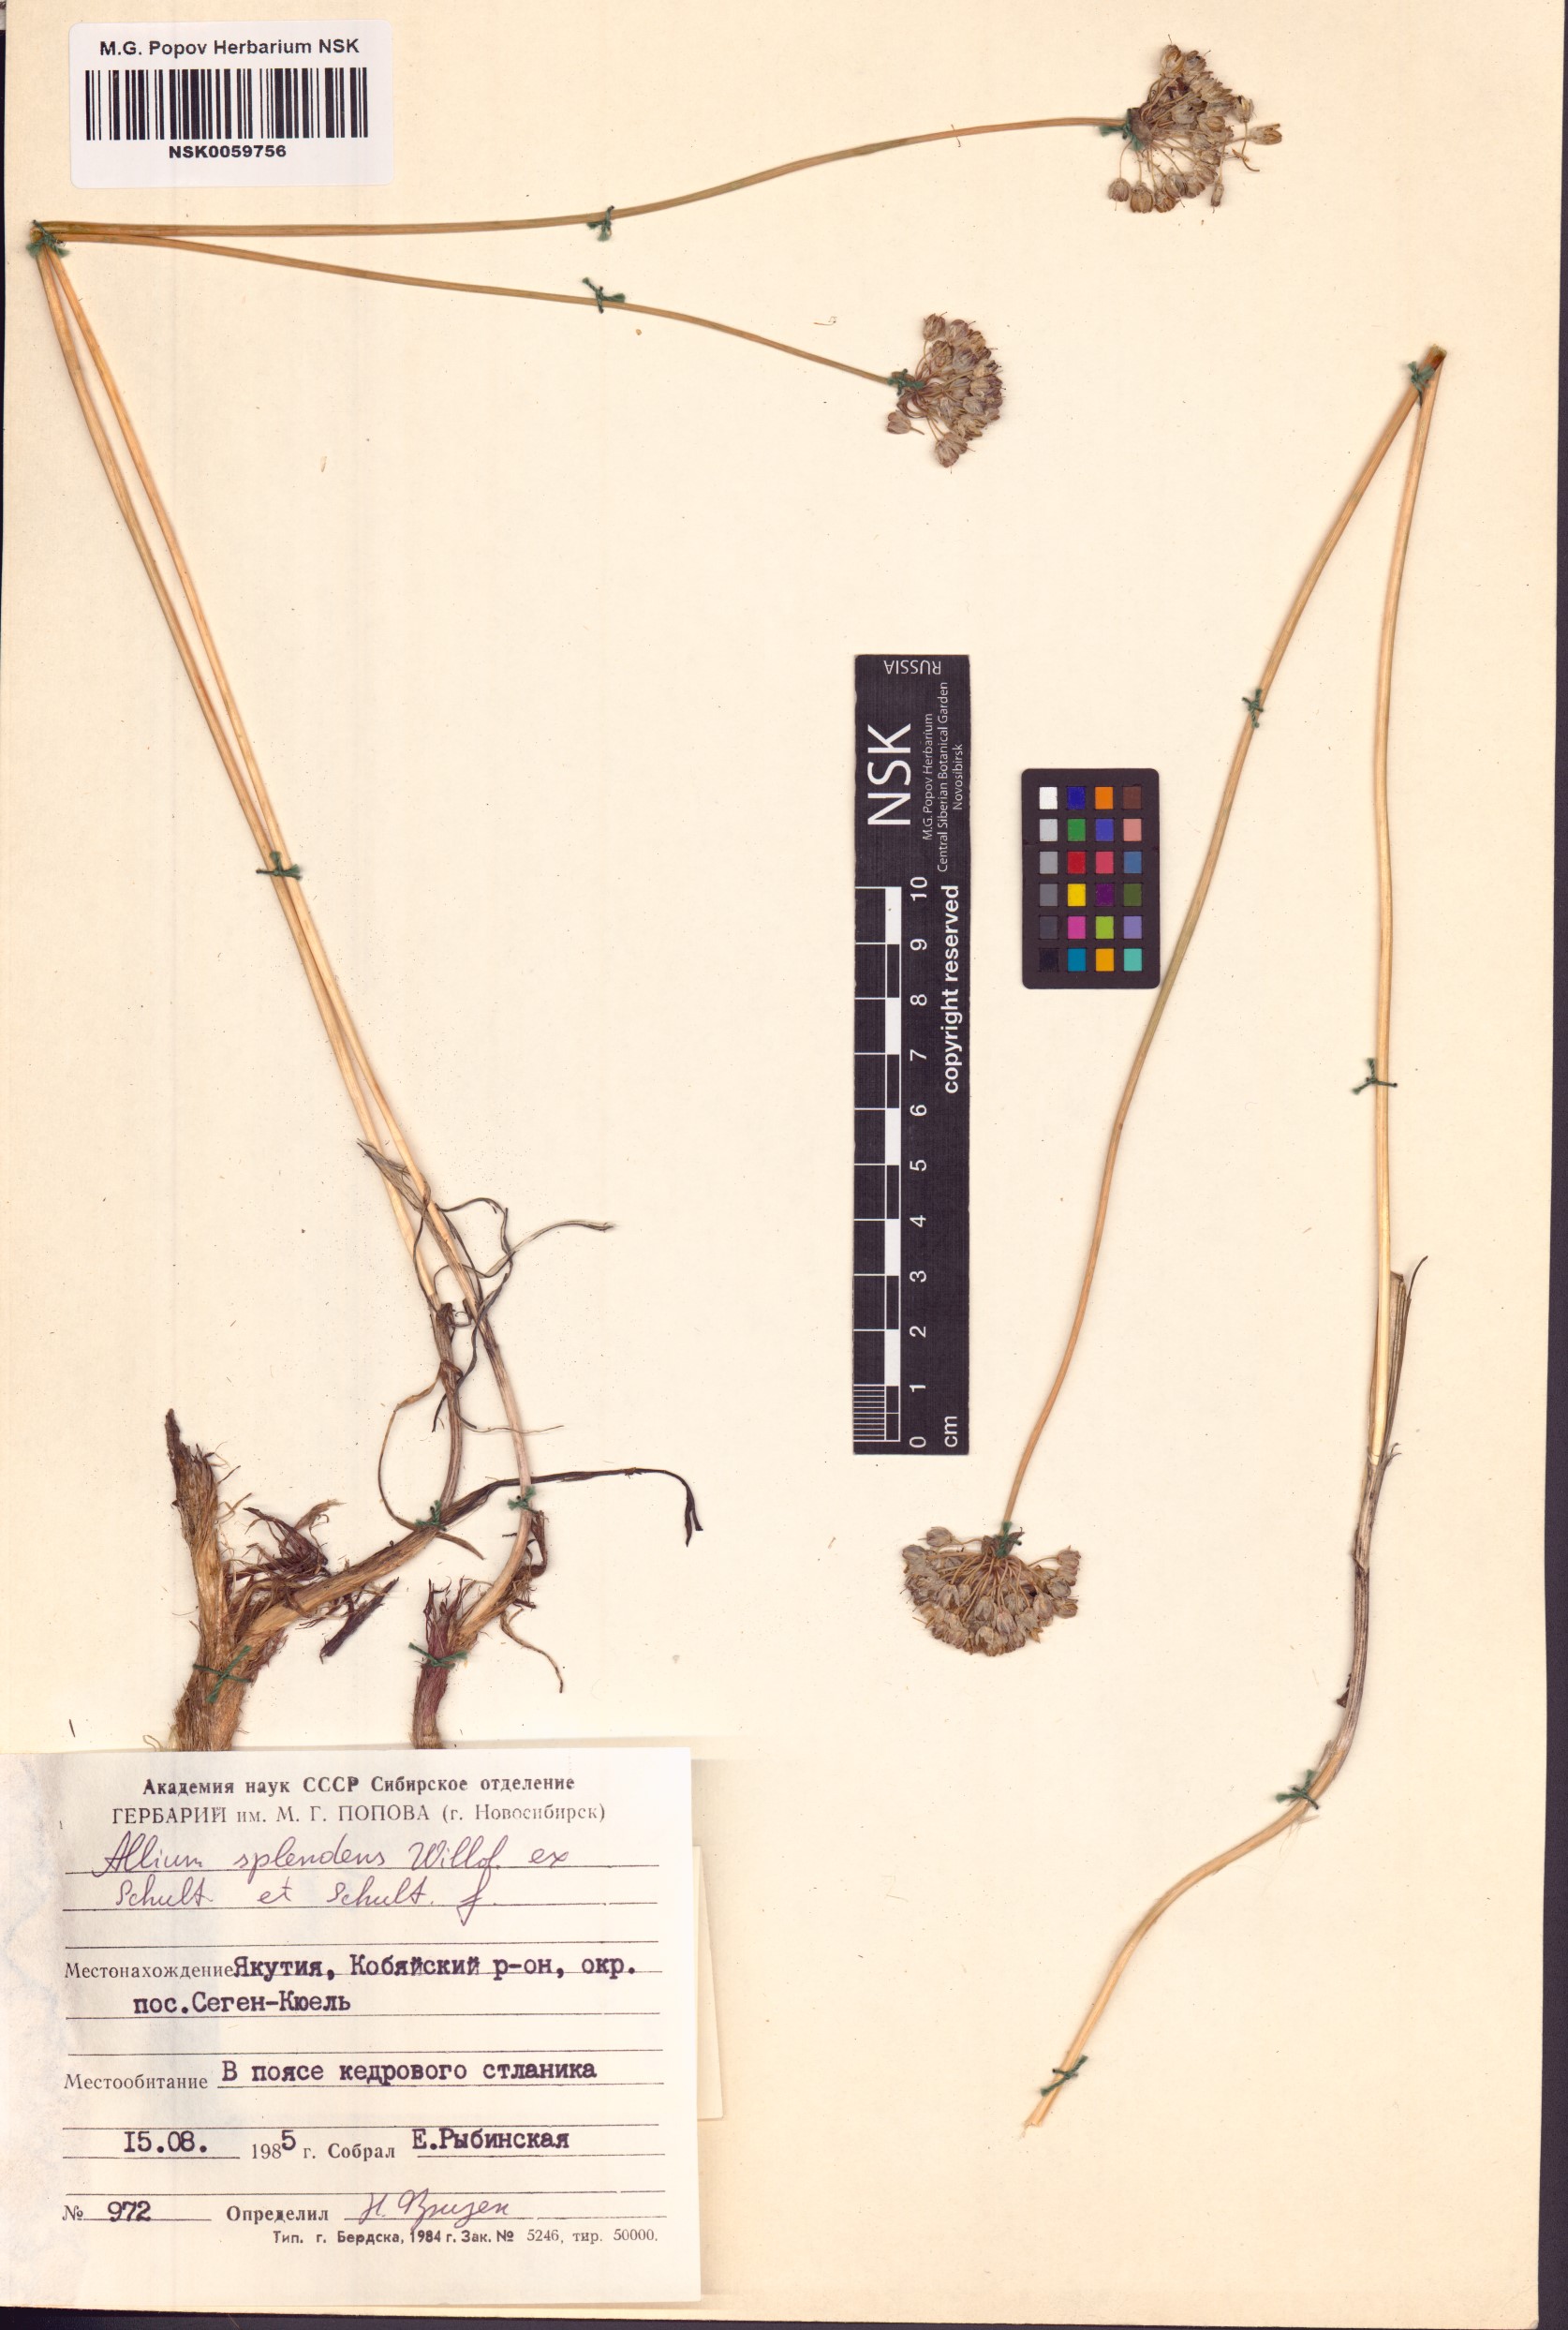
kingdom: Plantae
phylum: Tracheophyta
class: Liliopsida
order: Asparagales
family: Amaryllidaceae
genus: Allium
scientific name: Allium splendens
